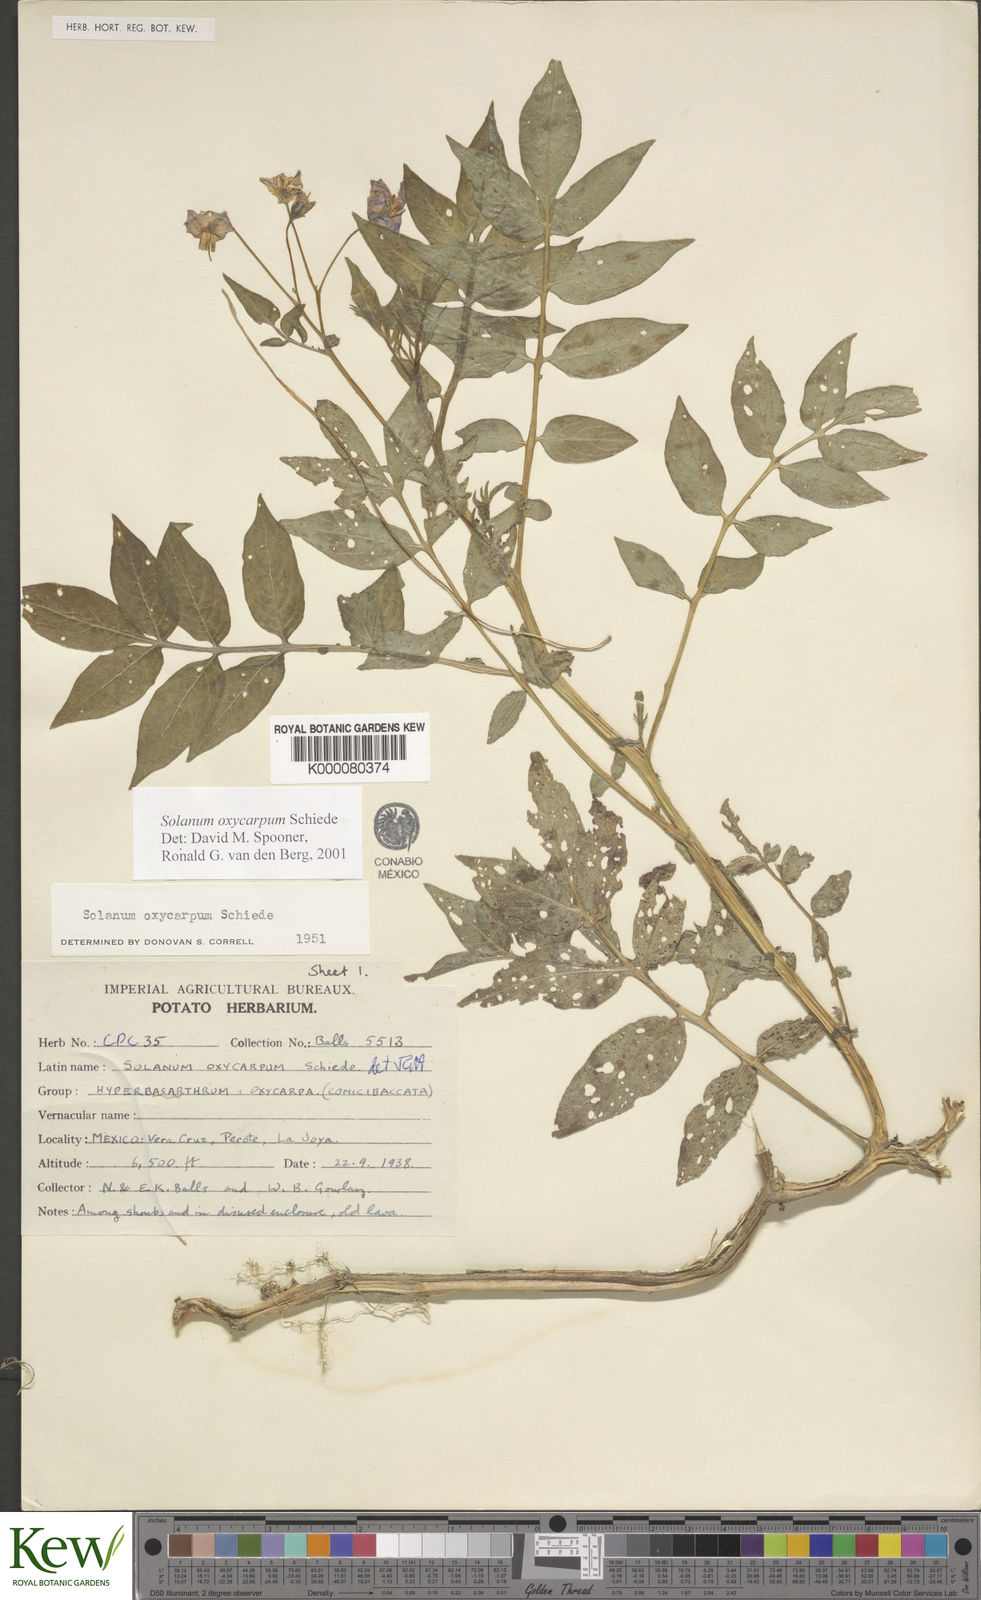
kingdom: Plantae
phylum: Tracheophyta
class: Magnoliopsida
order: Solanales
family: Solanaceae
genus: Solanum
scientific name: Solanum oxycarpum
